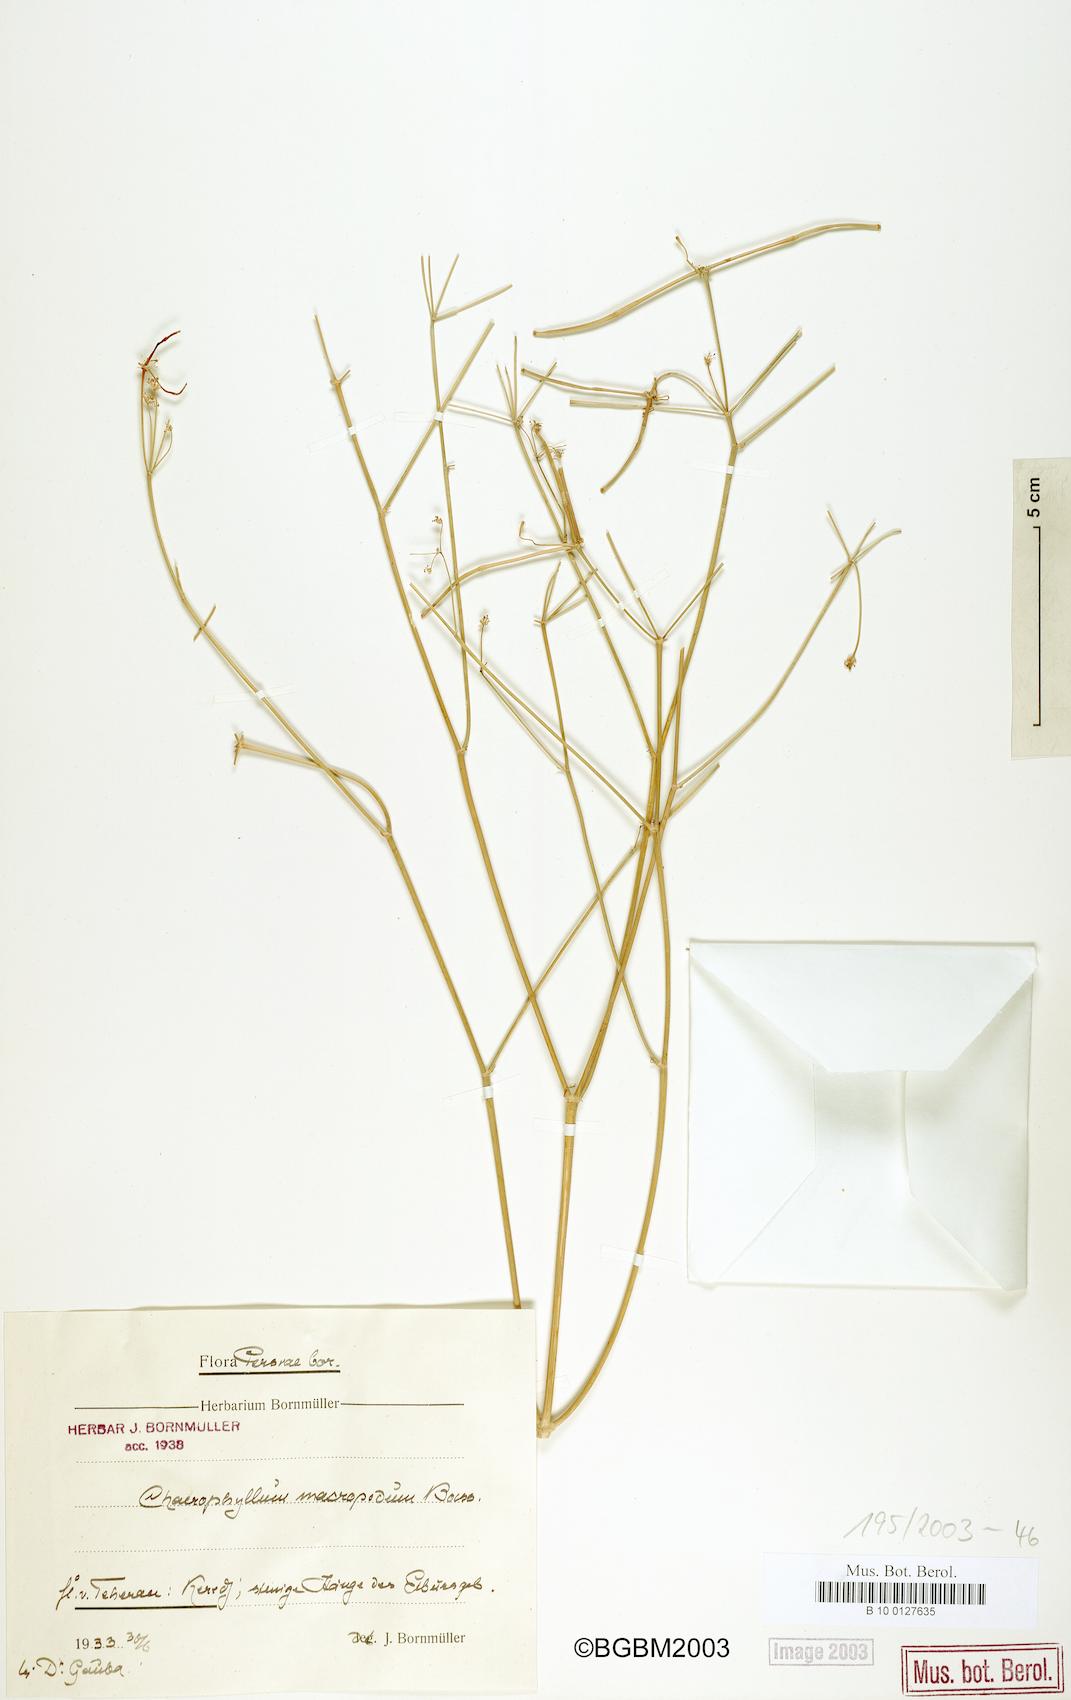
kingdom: Plantae
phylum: Tracheophyta
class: Magnoliopsida
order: Apiales
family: Apiaceae
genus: Chaerophyllum
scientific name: Chaerophyllum macropodum
